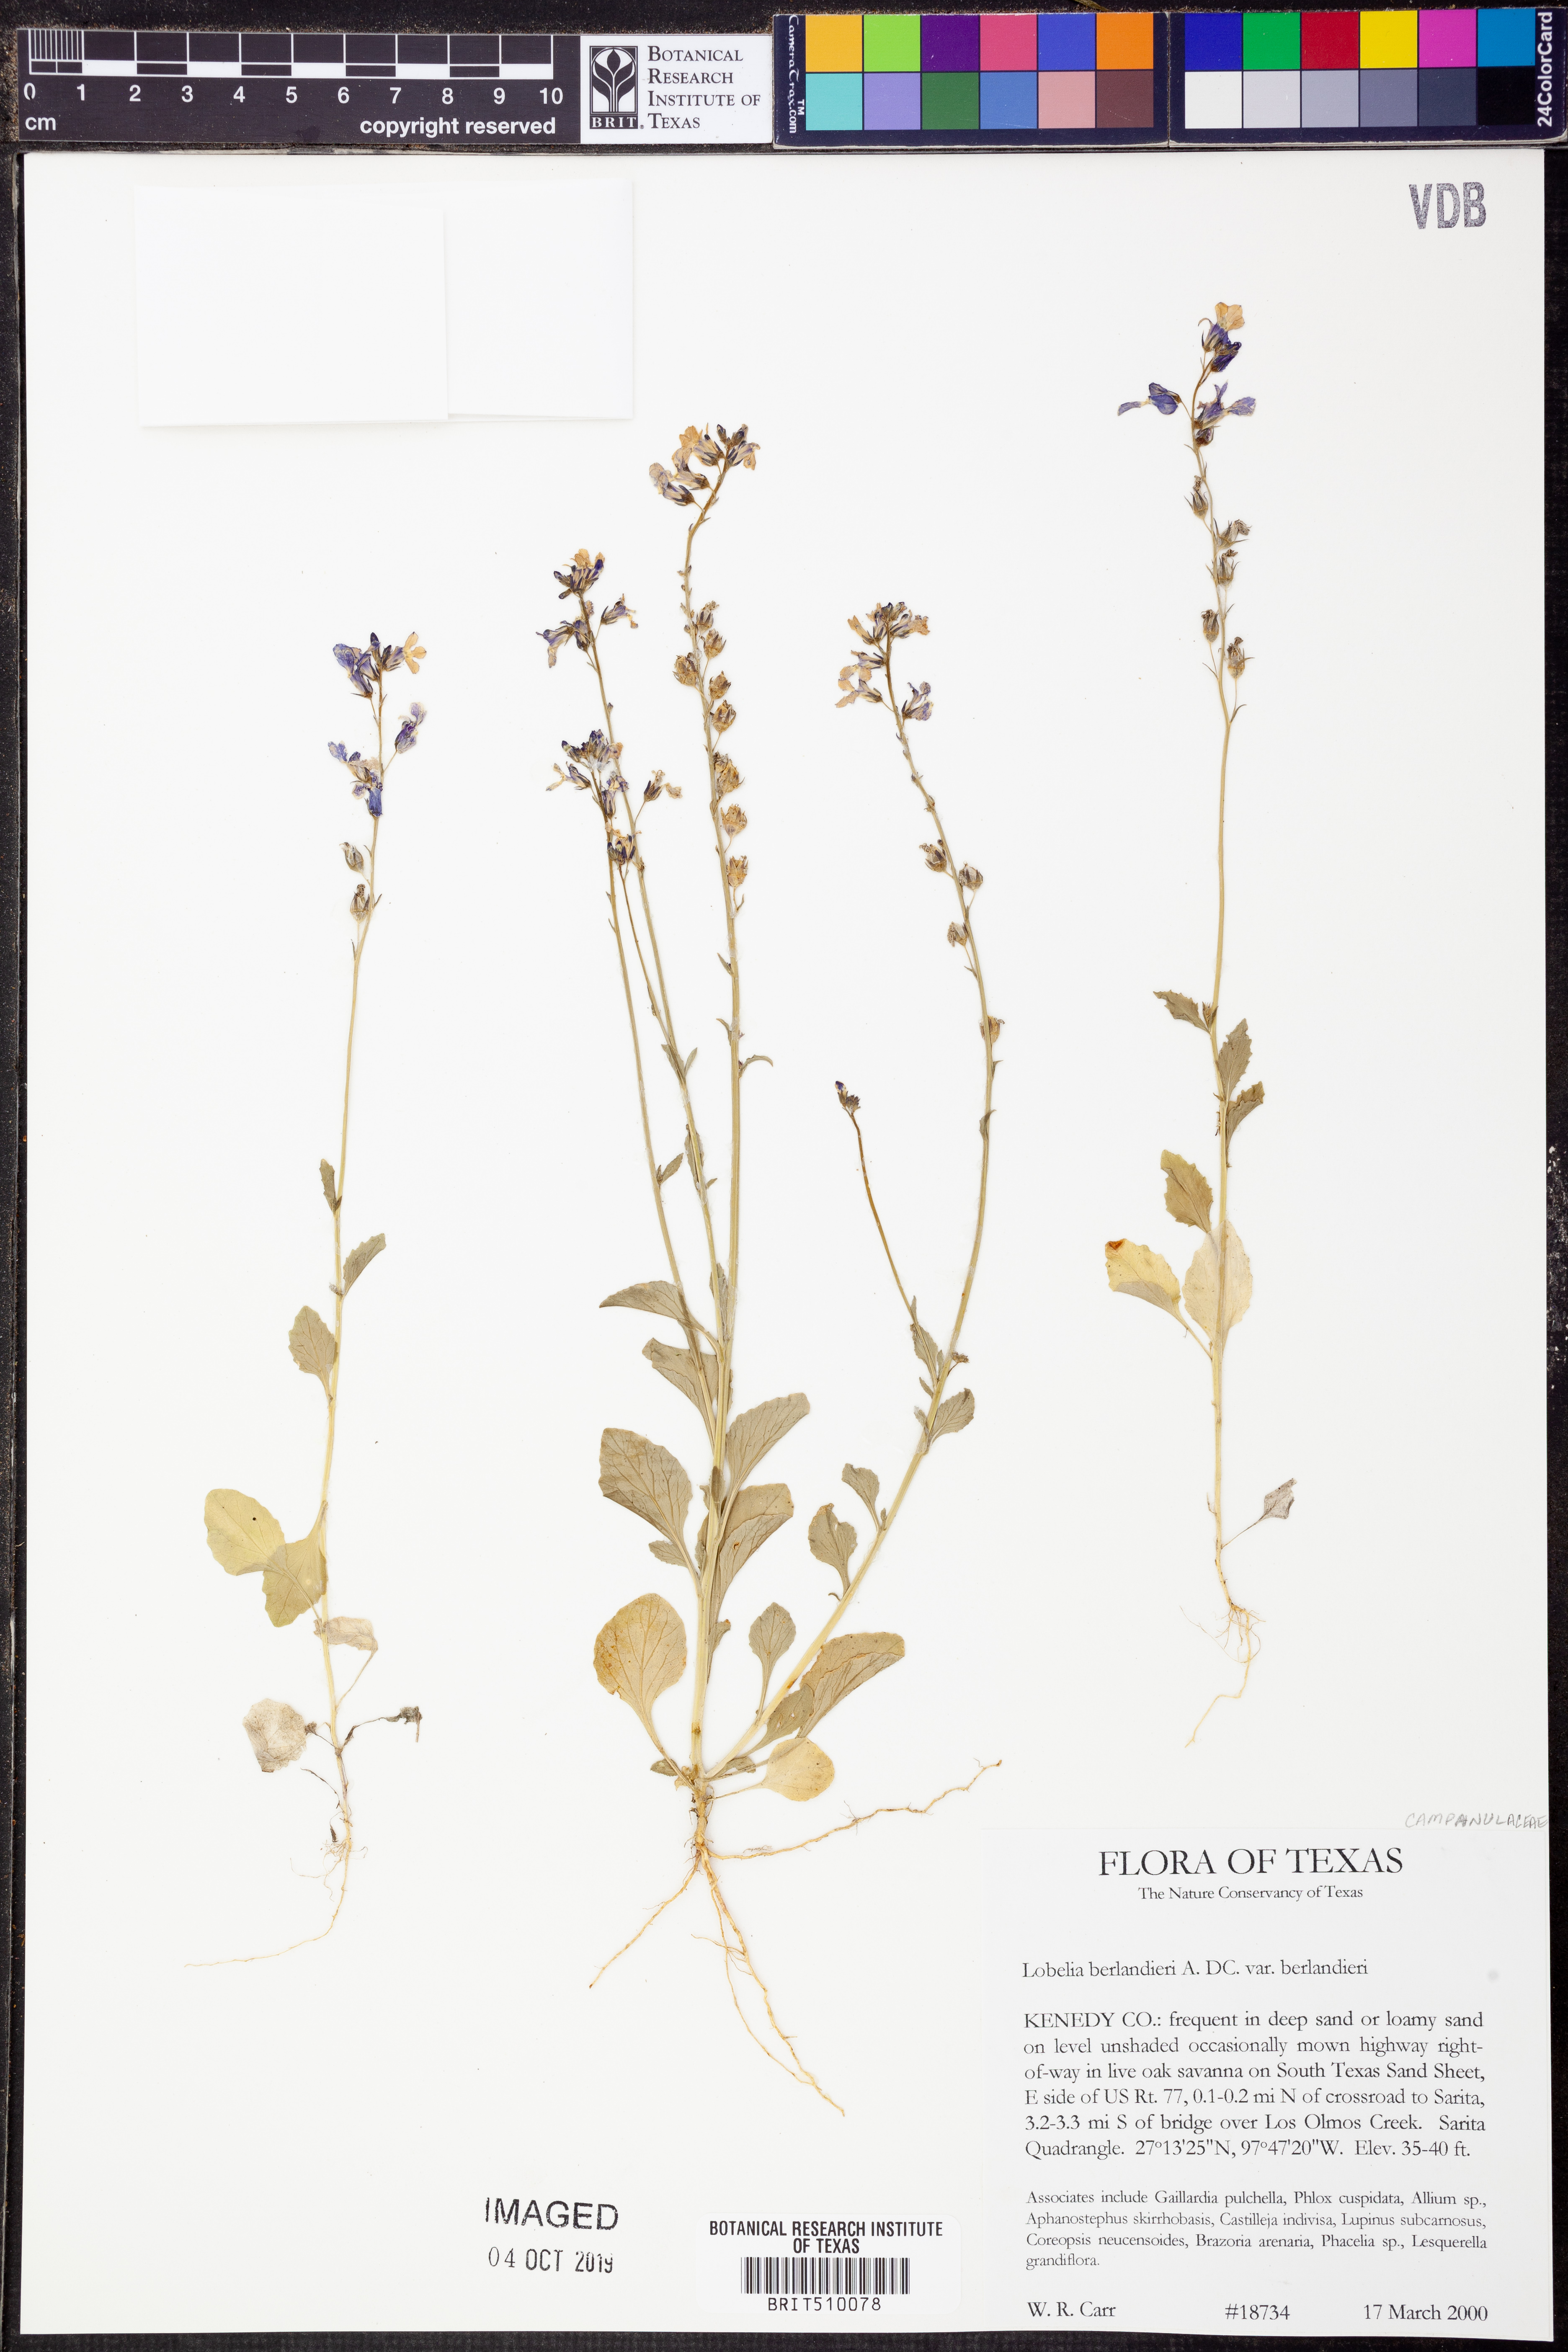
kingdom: Plantae
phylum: Tracheophyta
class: Magnoliopsida
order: Asterales
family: Campanulaceae
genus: Lobelia
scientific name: Lobelia berlandieri
